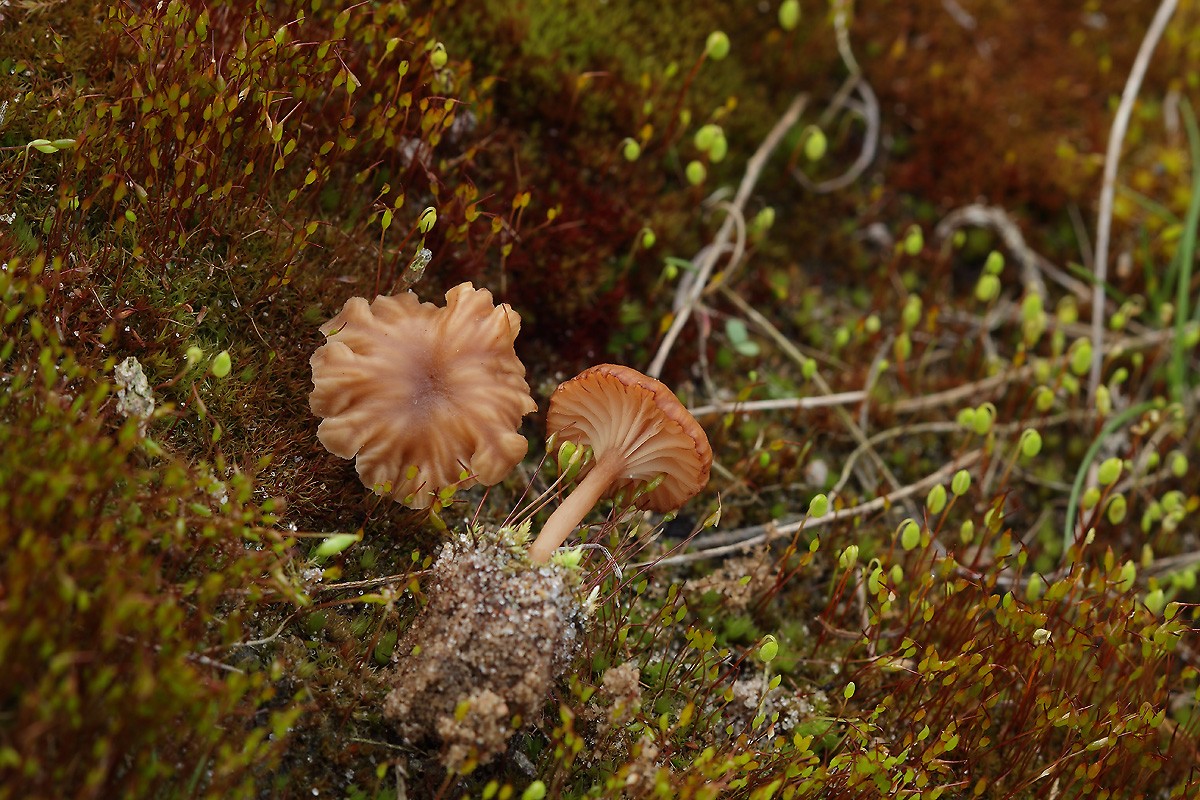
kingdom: Fungi
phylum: Basidiomycota
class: Agaricomycetes
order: Agaricales
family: Tricholomataceae
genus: Omphalina
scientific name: Omphalina pyxidata
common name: rødbrun navlehat
